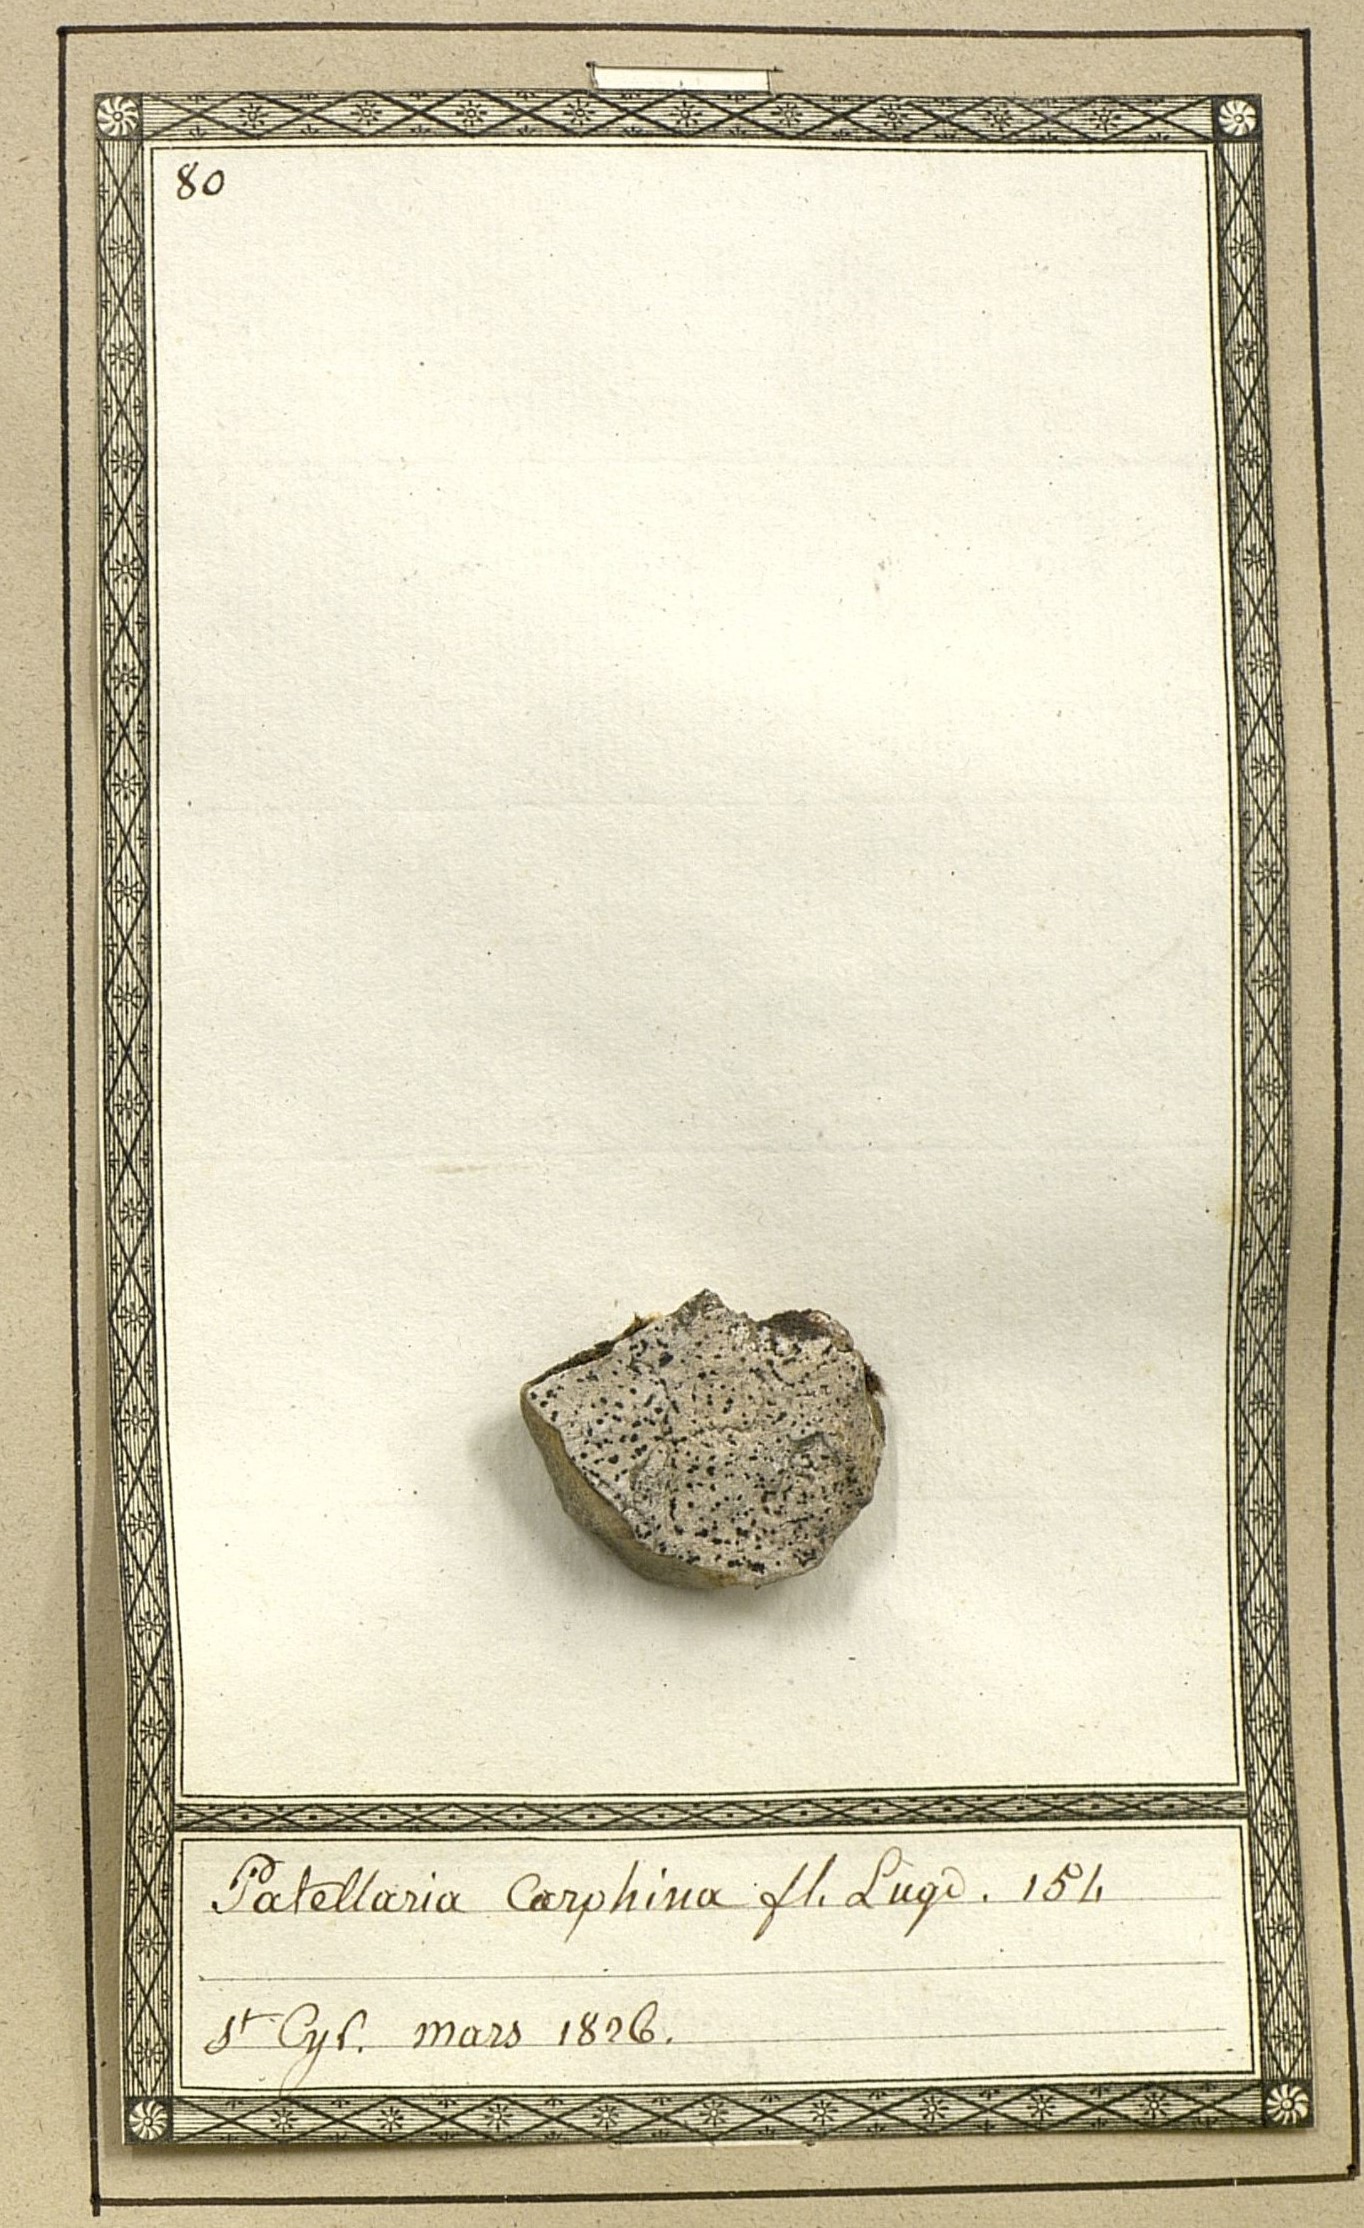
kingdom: Fungi
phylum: Ascomycota
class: Leotiomycetes
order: Helotiales
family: Dermateaceae
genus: Pezicula
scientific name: Pezicula carpinea
